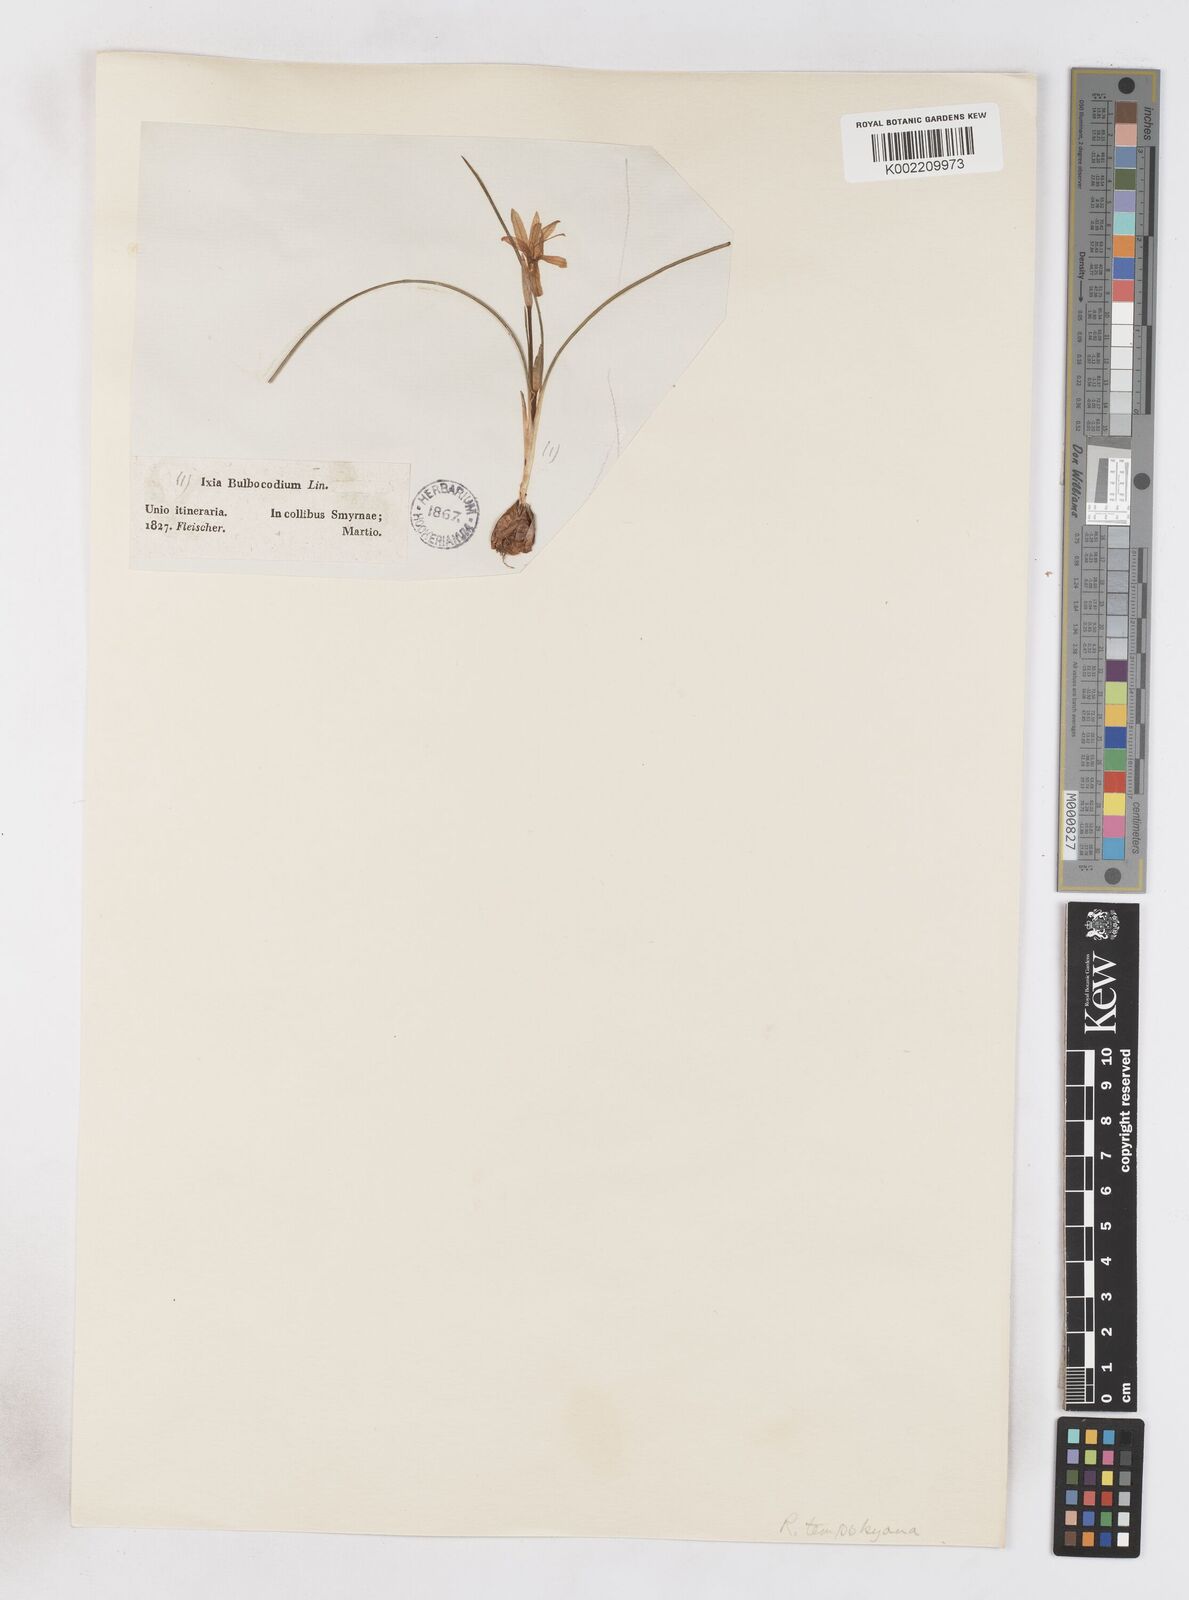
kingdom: Plantae
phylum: Tracheophyta
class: Liliopsida
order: Asparagales
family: Iridaceae
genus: Romulea
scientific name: Romulea tempskyana
